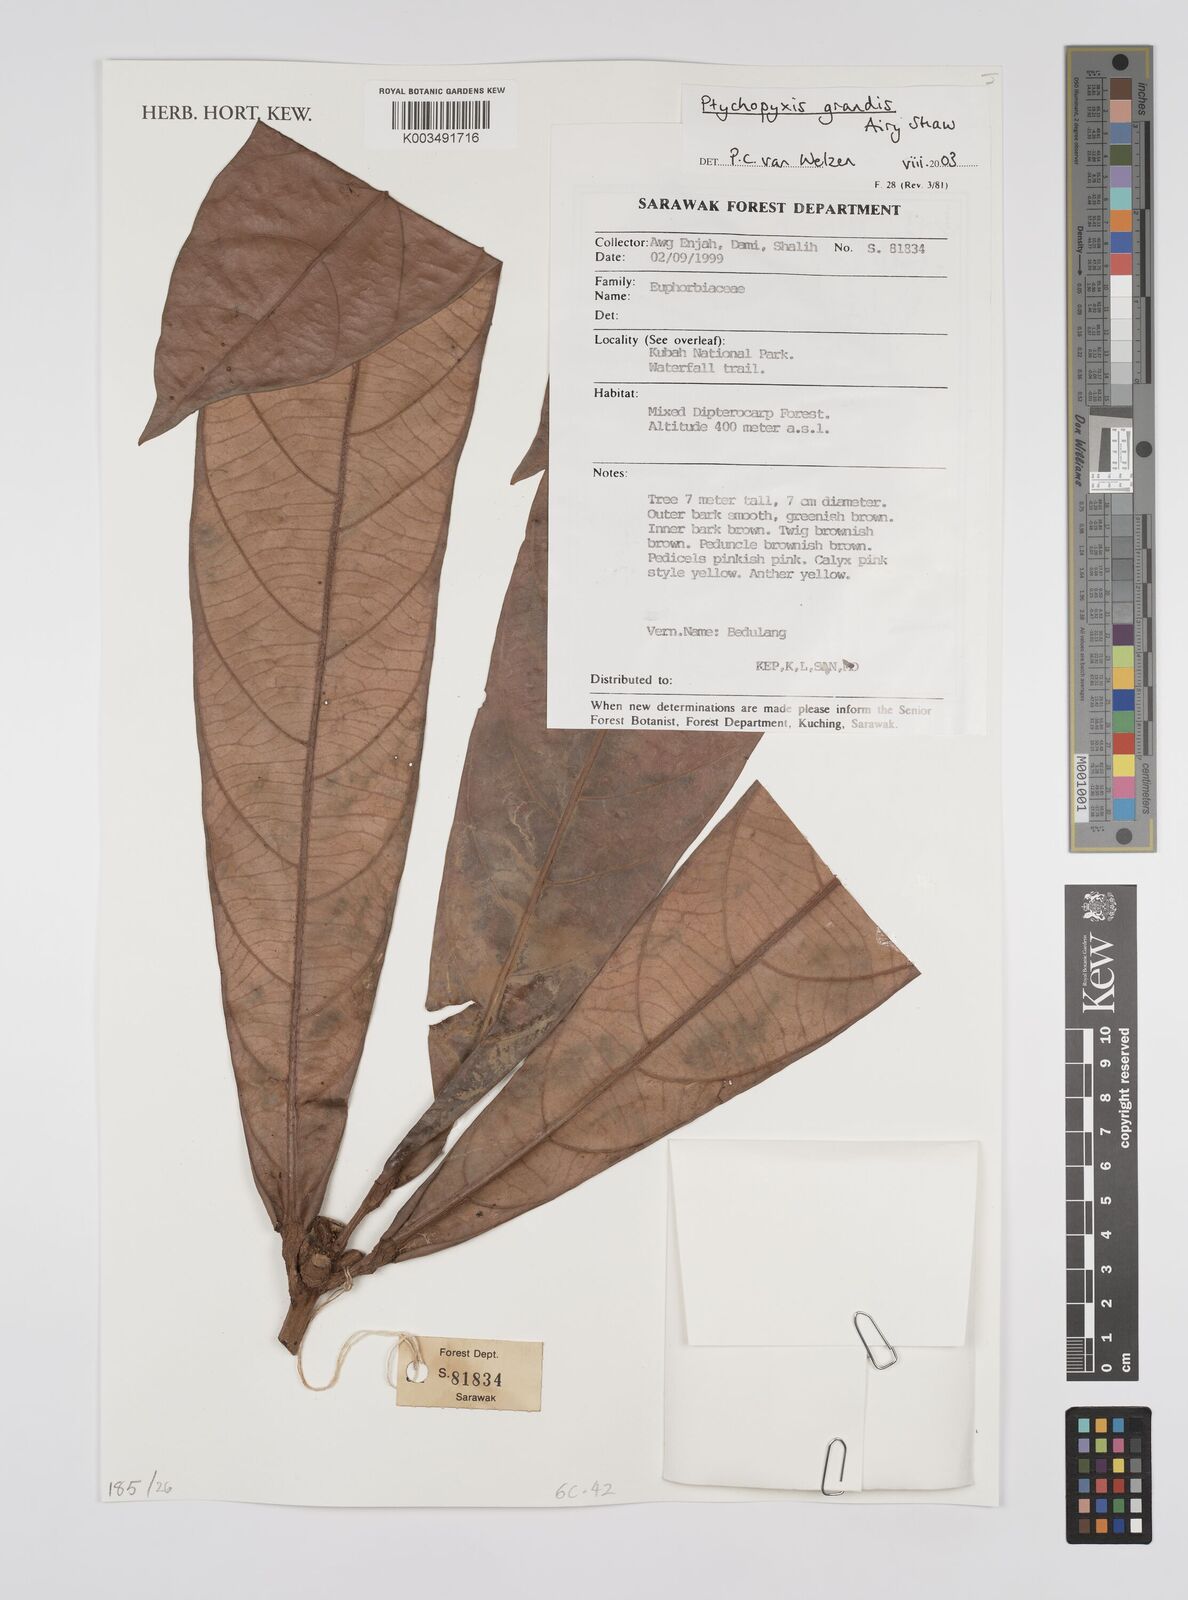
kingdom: Plantae
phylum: Tracheophyta
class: Magnoliopsida
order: Malpighiales
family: Euphorbiaceae
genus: Ptychopyxis
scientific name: Ptychopyxis grandis
